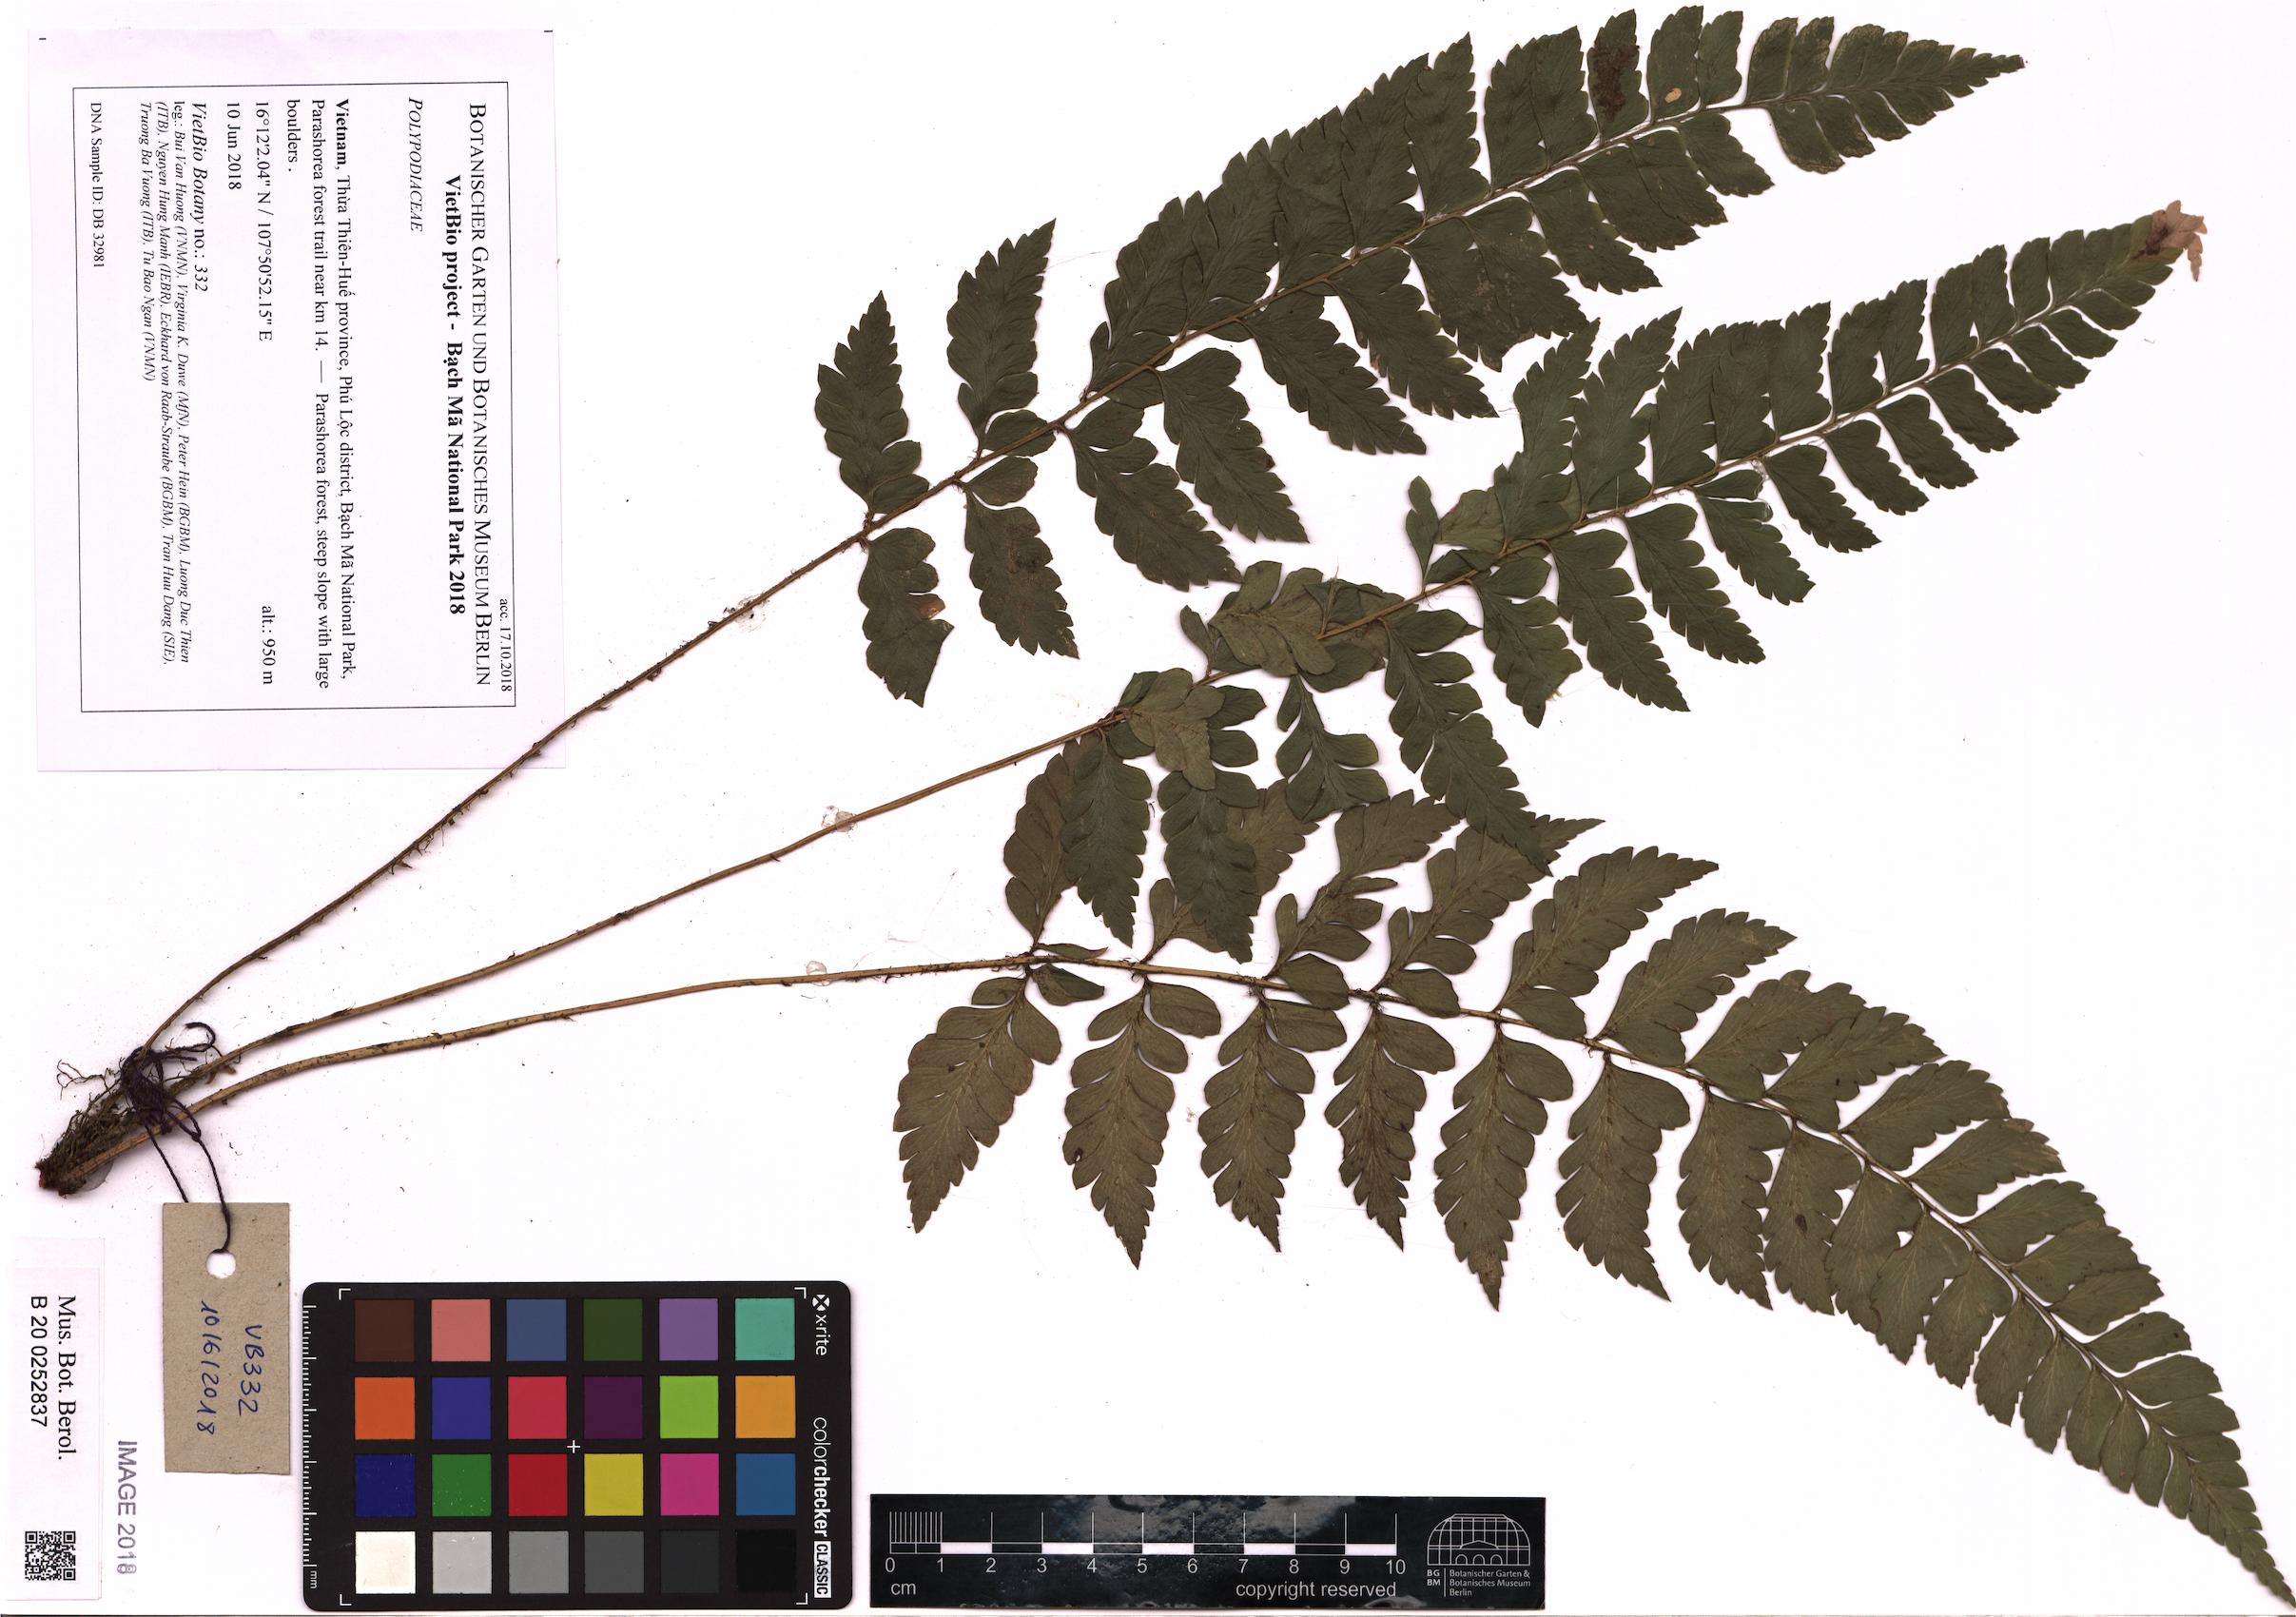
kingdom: Plantae
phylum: Tracheophyta
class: Polypodiopsida
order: Polypodiales
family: Polypodiaceae
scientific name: Polypodiaceae
